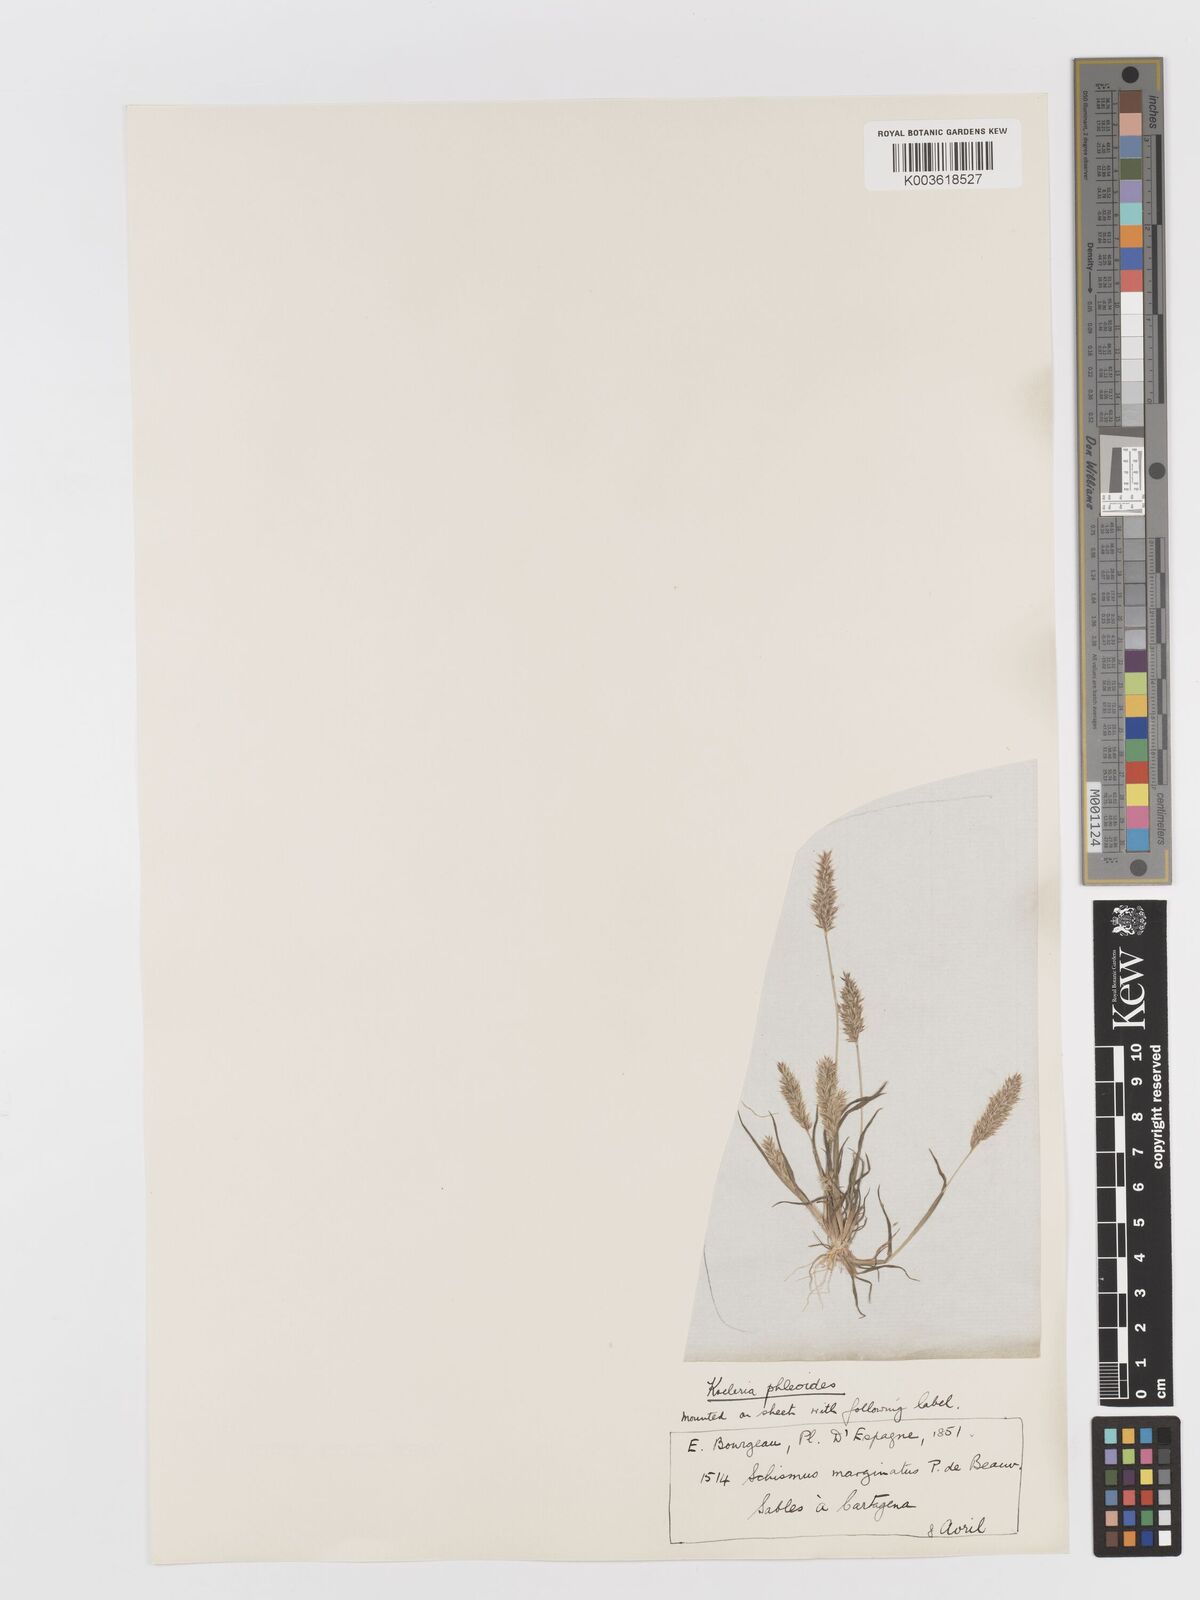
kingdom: Plantae
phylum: Tracheophyta
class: Liliopsida
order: Poales
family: Poaceae
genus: Rostraria
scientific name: Rostraria cristata
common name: Mediterranean hair-grass
